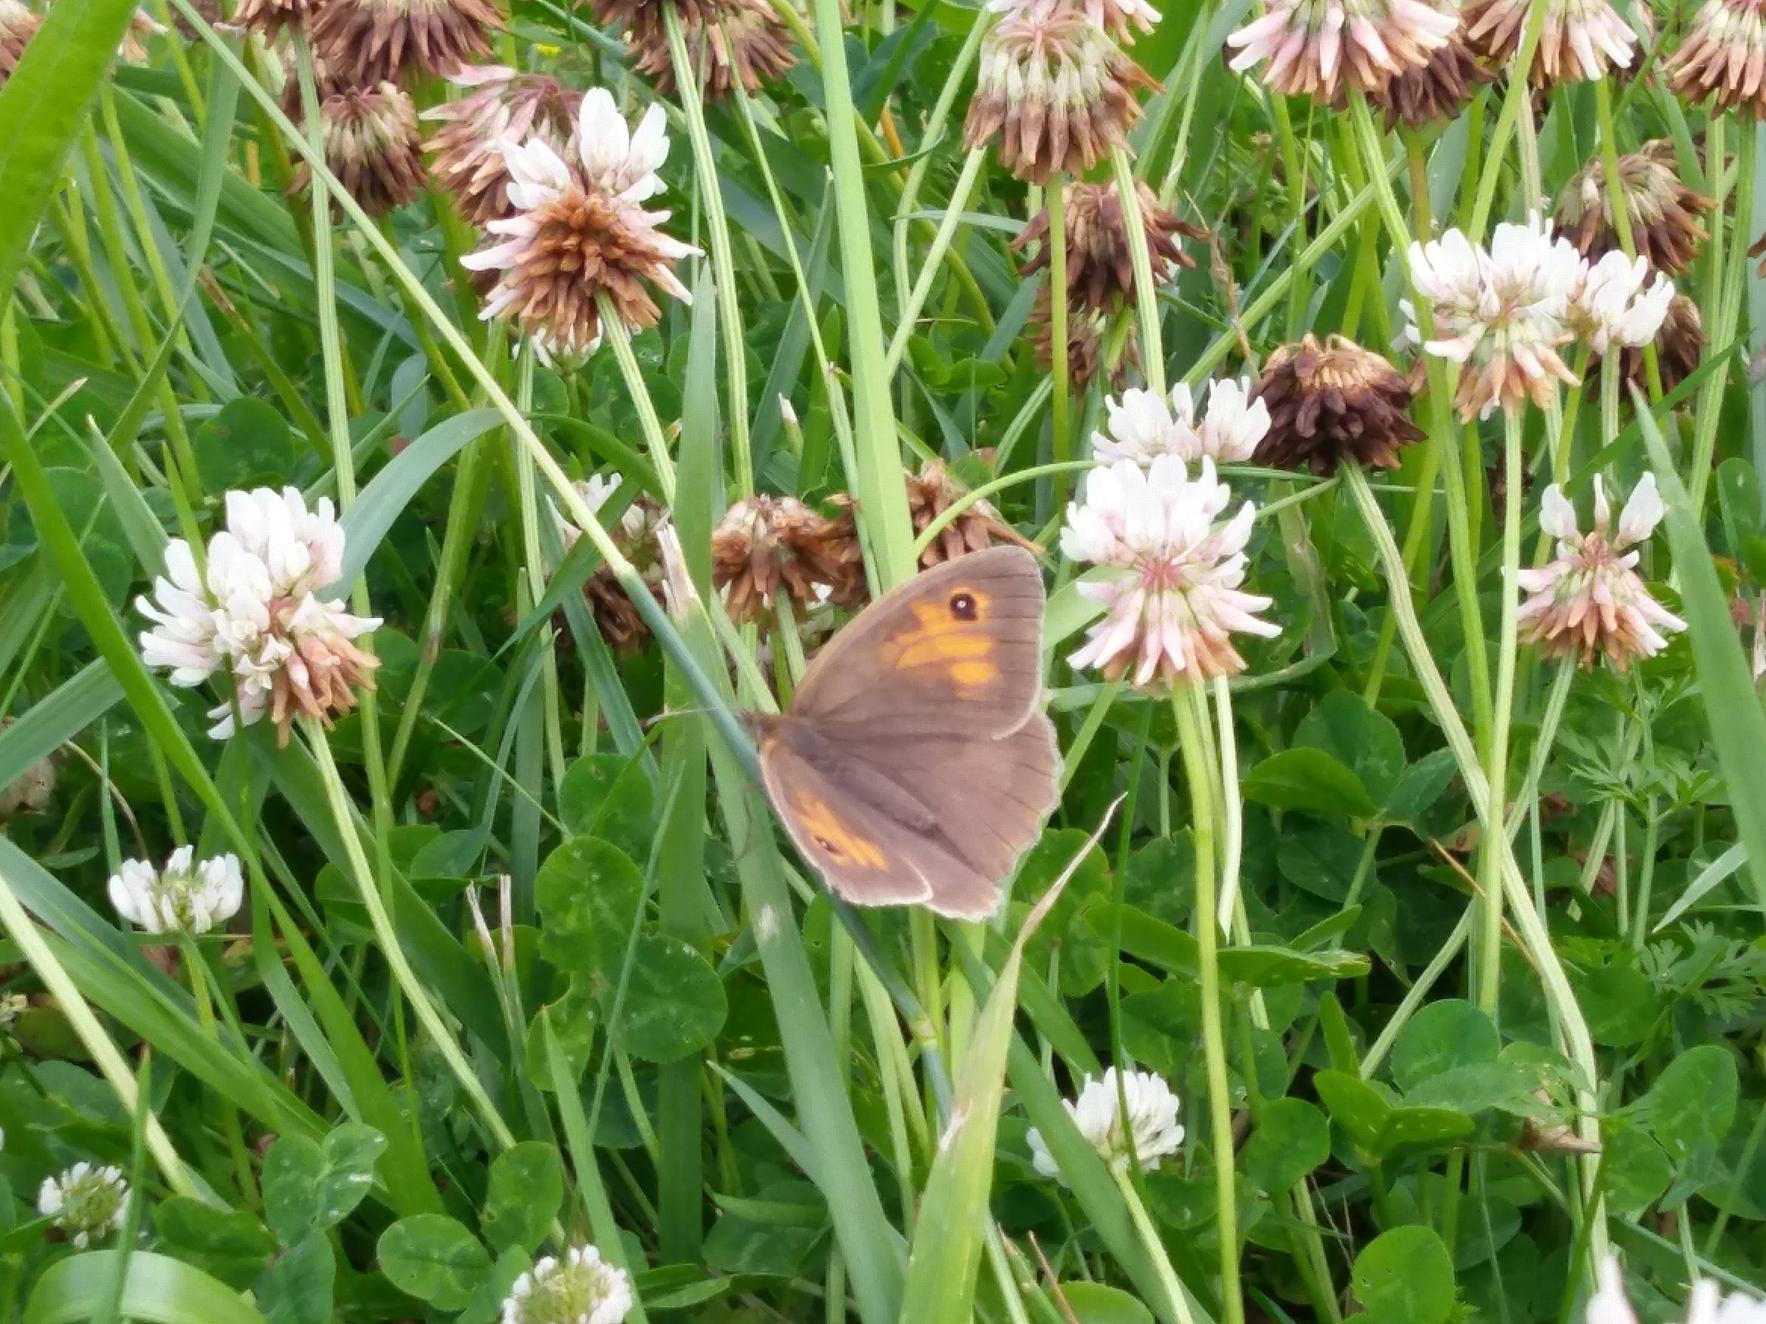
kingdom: Animalia
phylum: Arthropoda
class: Insecta
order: Lepidoptera
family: Nymphalidae
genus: Maniola
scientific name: Maniola jurtina
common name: Græsrandøje
